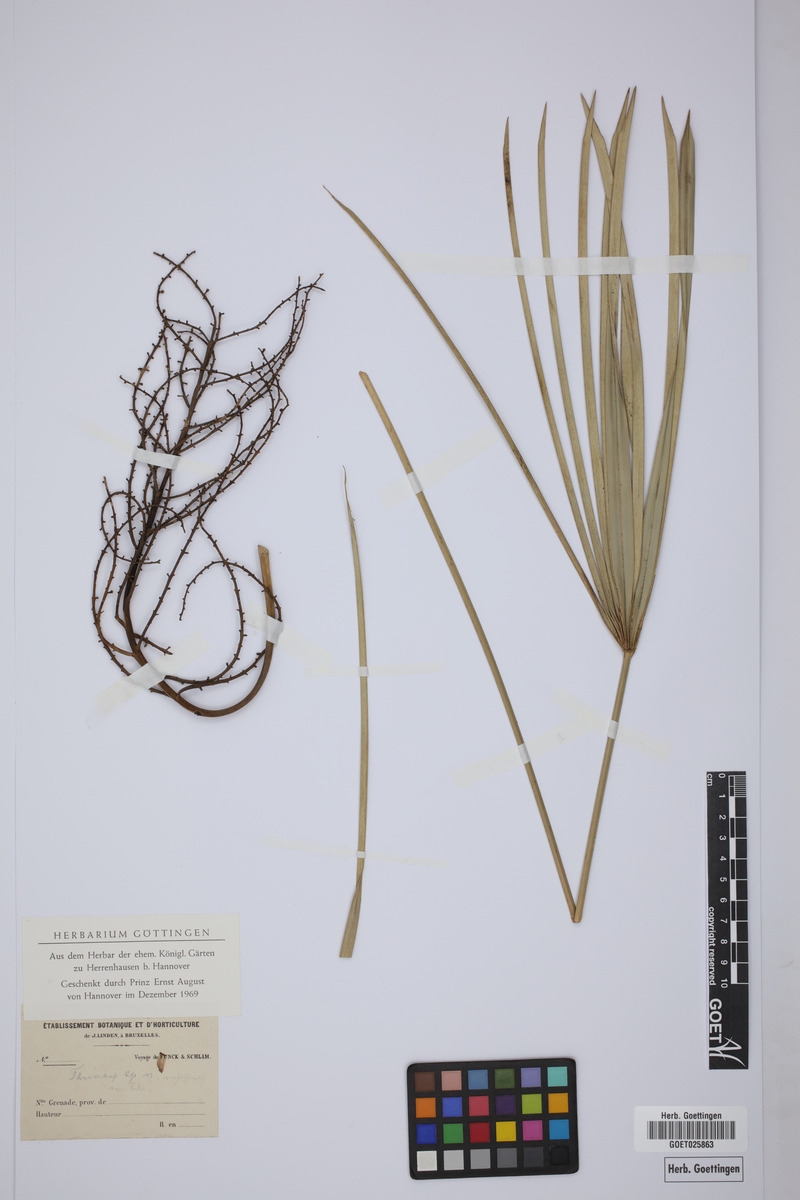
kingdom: Plantae
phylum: Tracheophyta
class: Liliopsida
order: Arecales
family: Arecaceae
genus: Thrinax
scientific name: Thrinax
